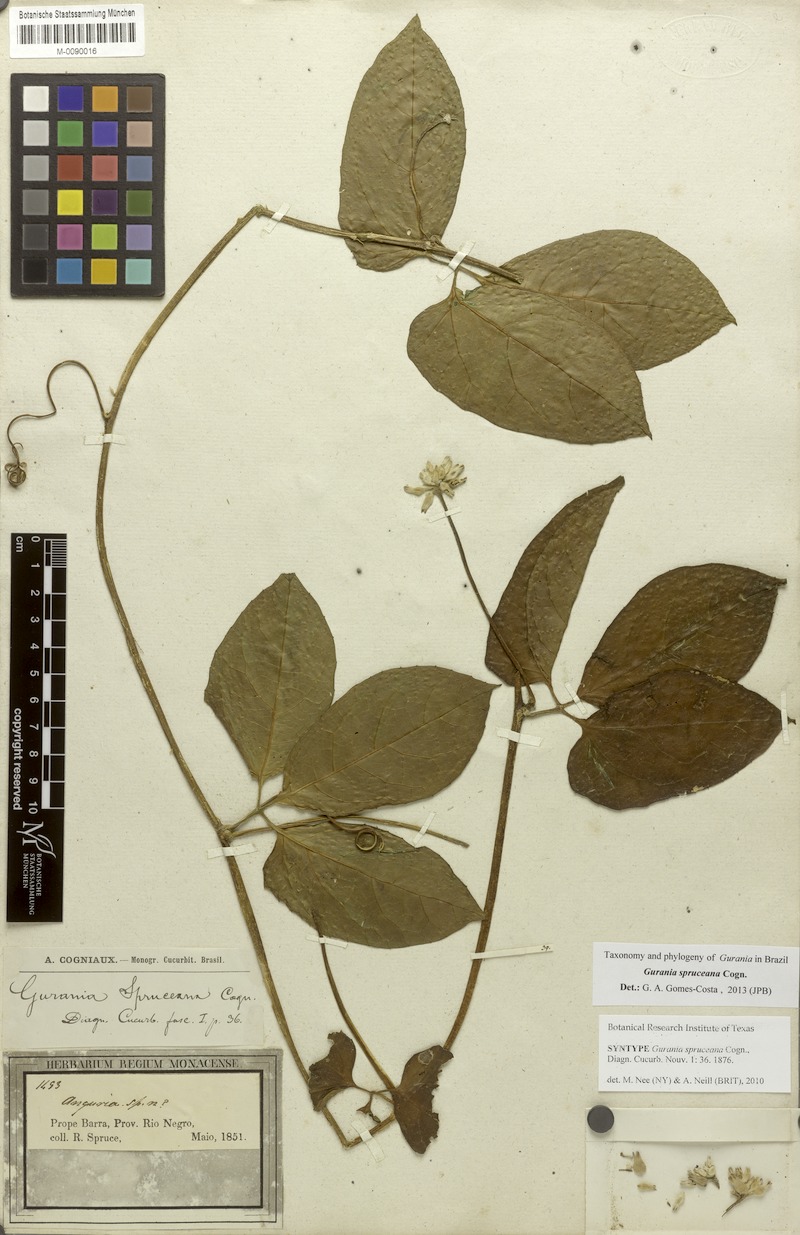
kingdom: Plantae
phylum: Tracheophyta
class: Magnoliopsida
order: Cucurbitales
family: Cucurbitaceae
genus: Gurania
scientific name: Gurania spruceana
